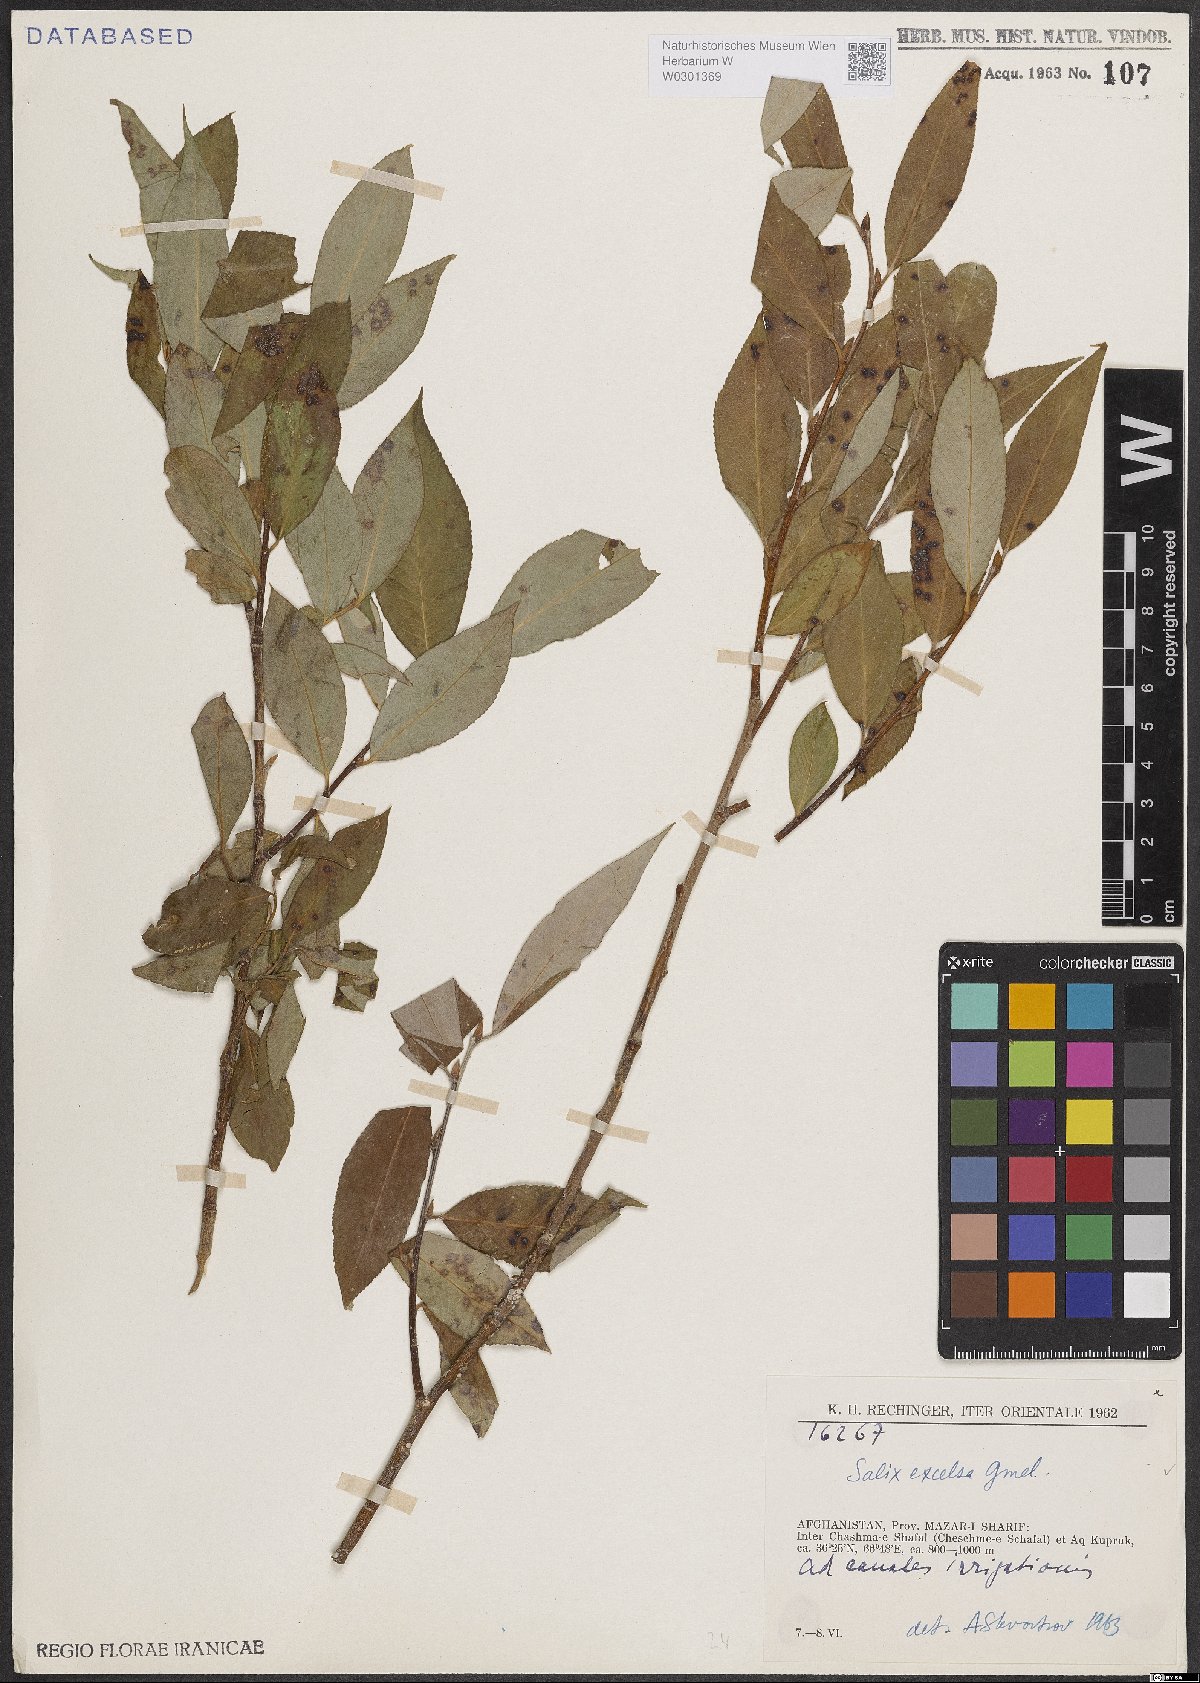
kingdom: Plantae
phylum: Tracheophyta
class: Magnoliopsida
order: Malpighiales
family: Salicaceae
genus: Salix
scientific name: Salix excelsa
